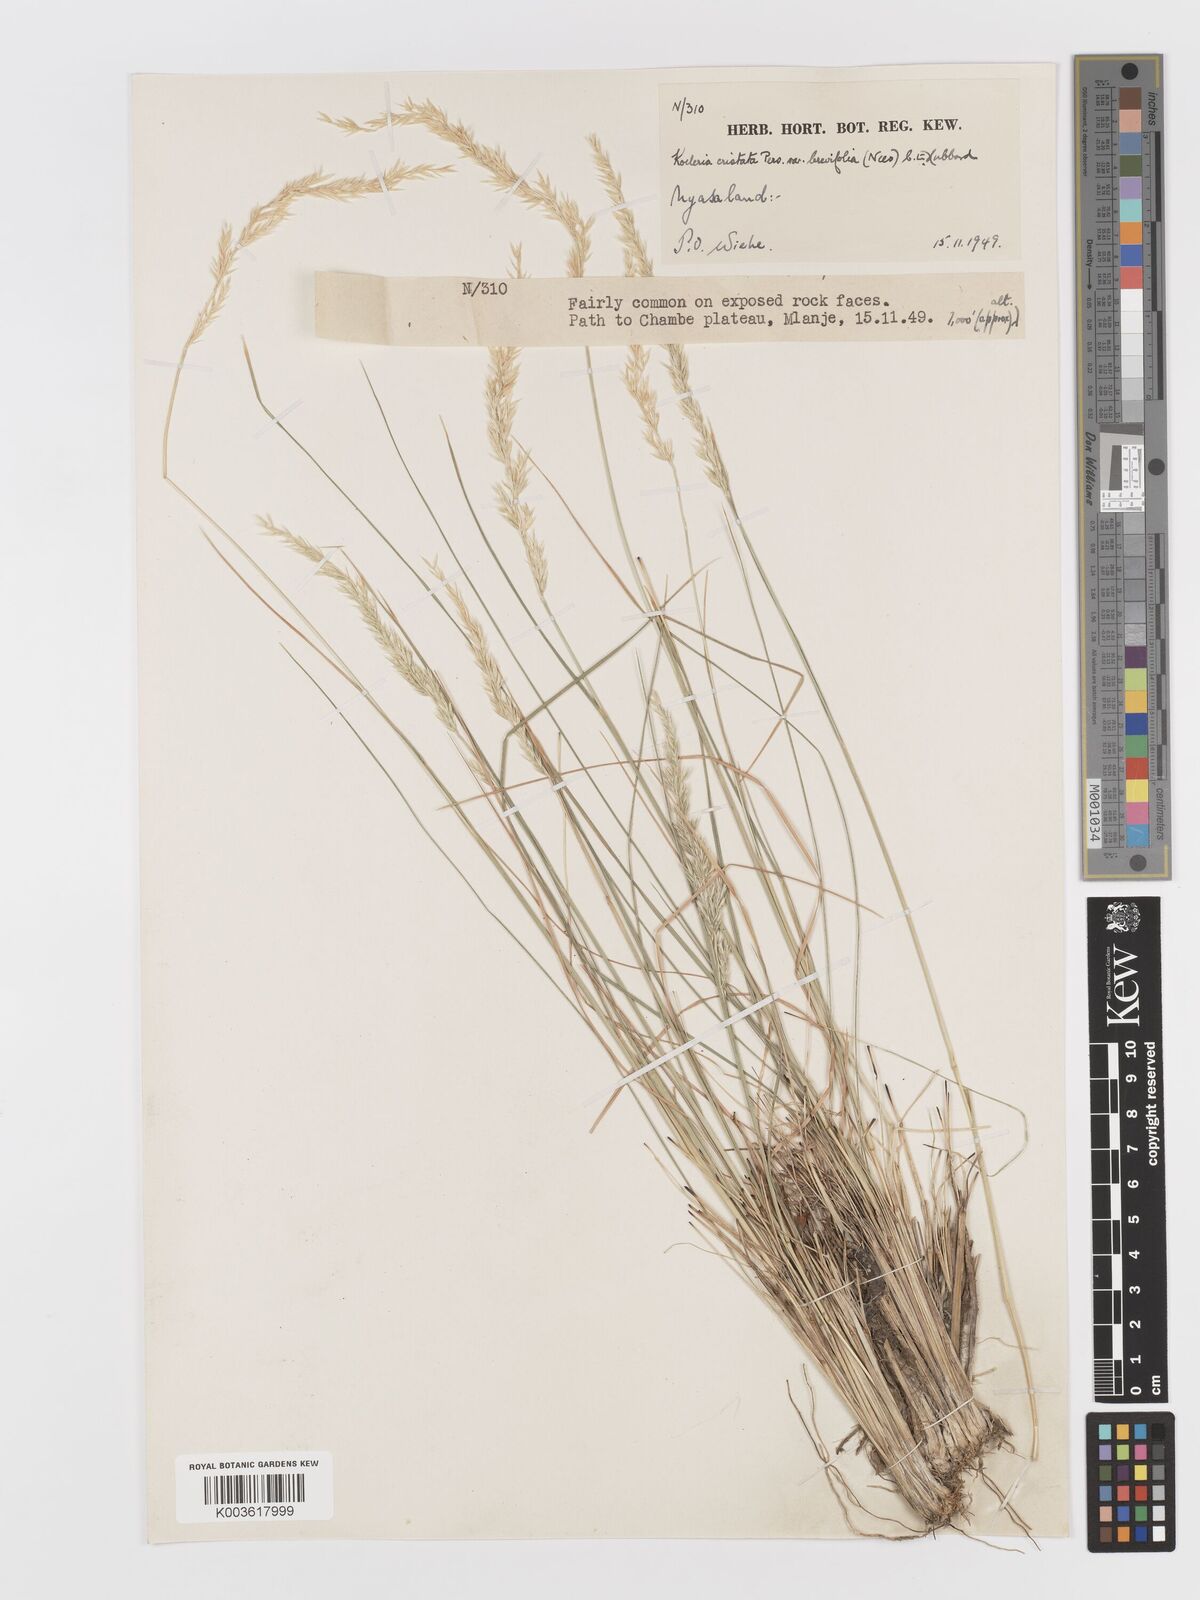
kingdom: Plantae
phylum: Tracheophyta
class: Liliopsida
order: Poales
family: Poaceae
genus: Koeleria
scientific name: Koeleria capensis
